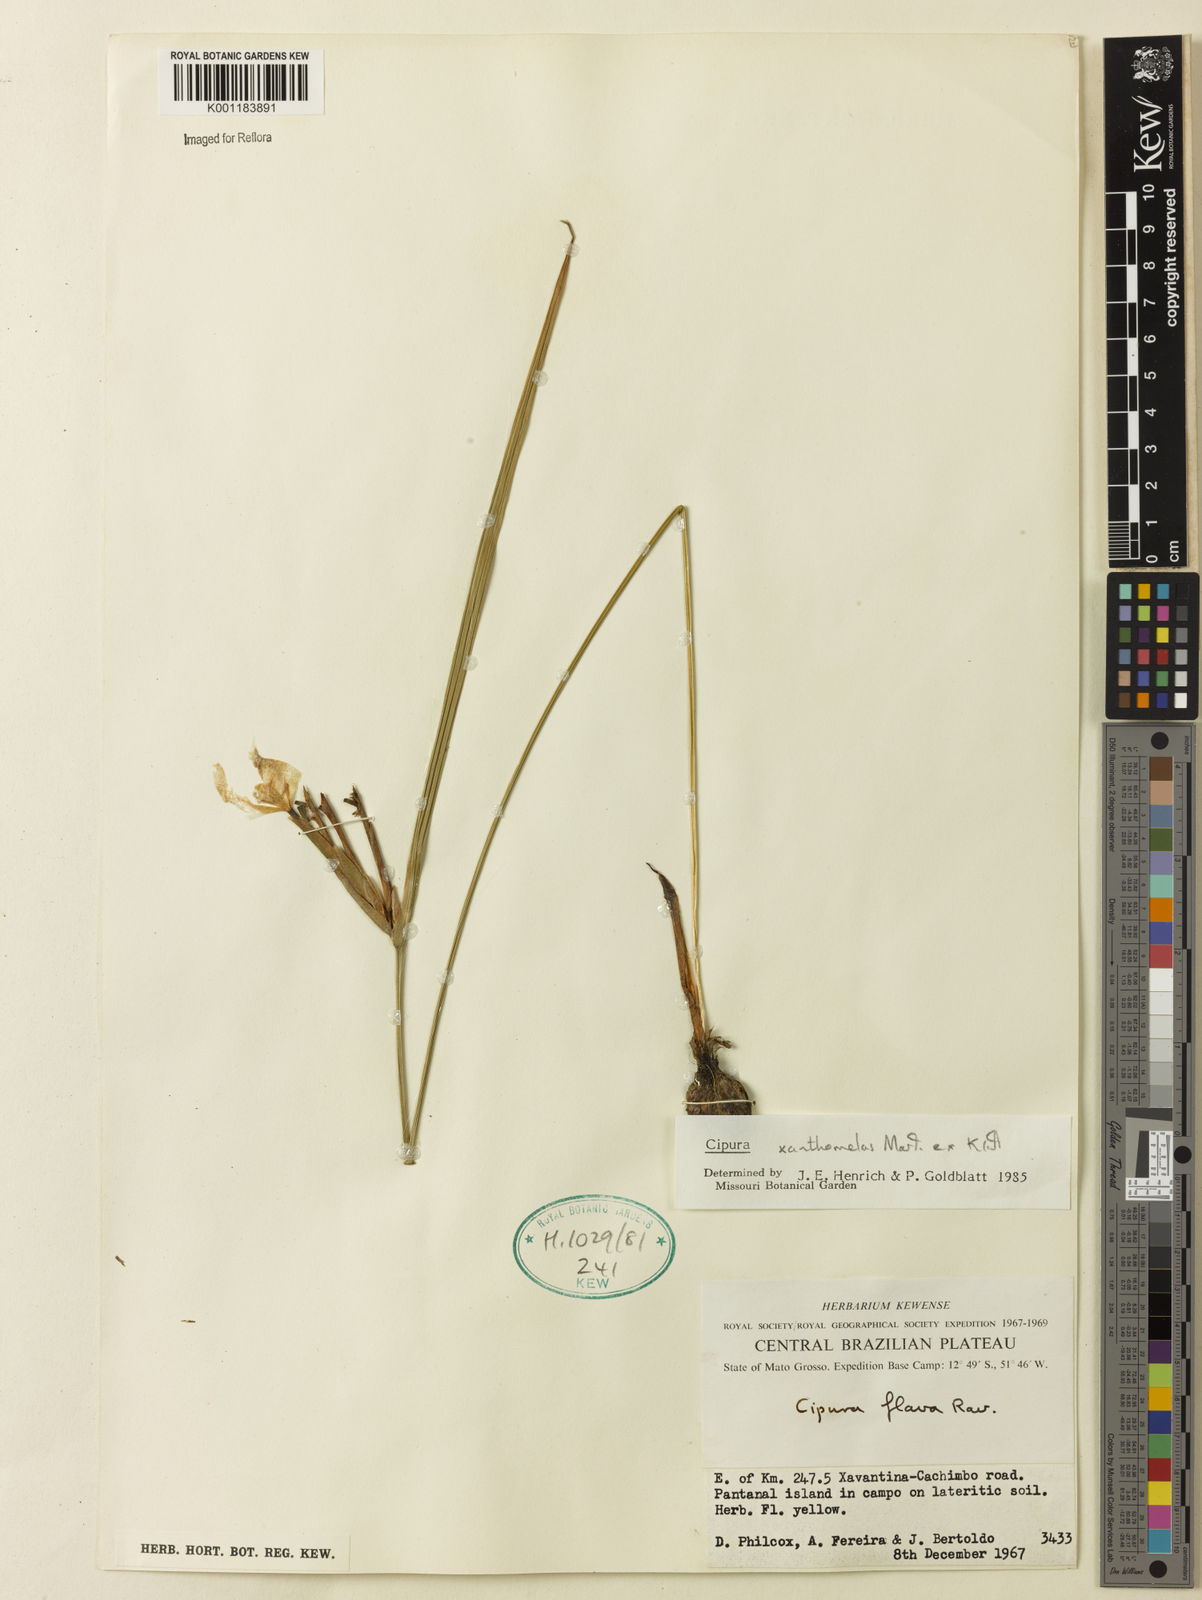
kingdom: Plantae
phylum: Tracheophyta
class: Liliopsida
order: Asparagales
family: Iridaceae
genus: Cipura
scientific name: Cipura xanthomelas
